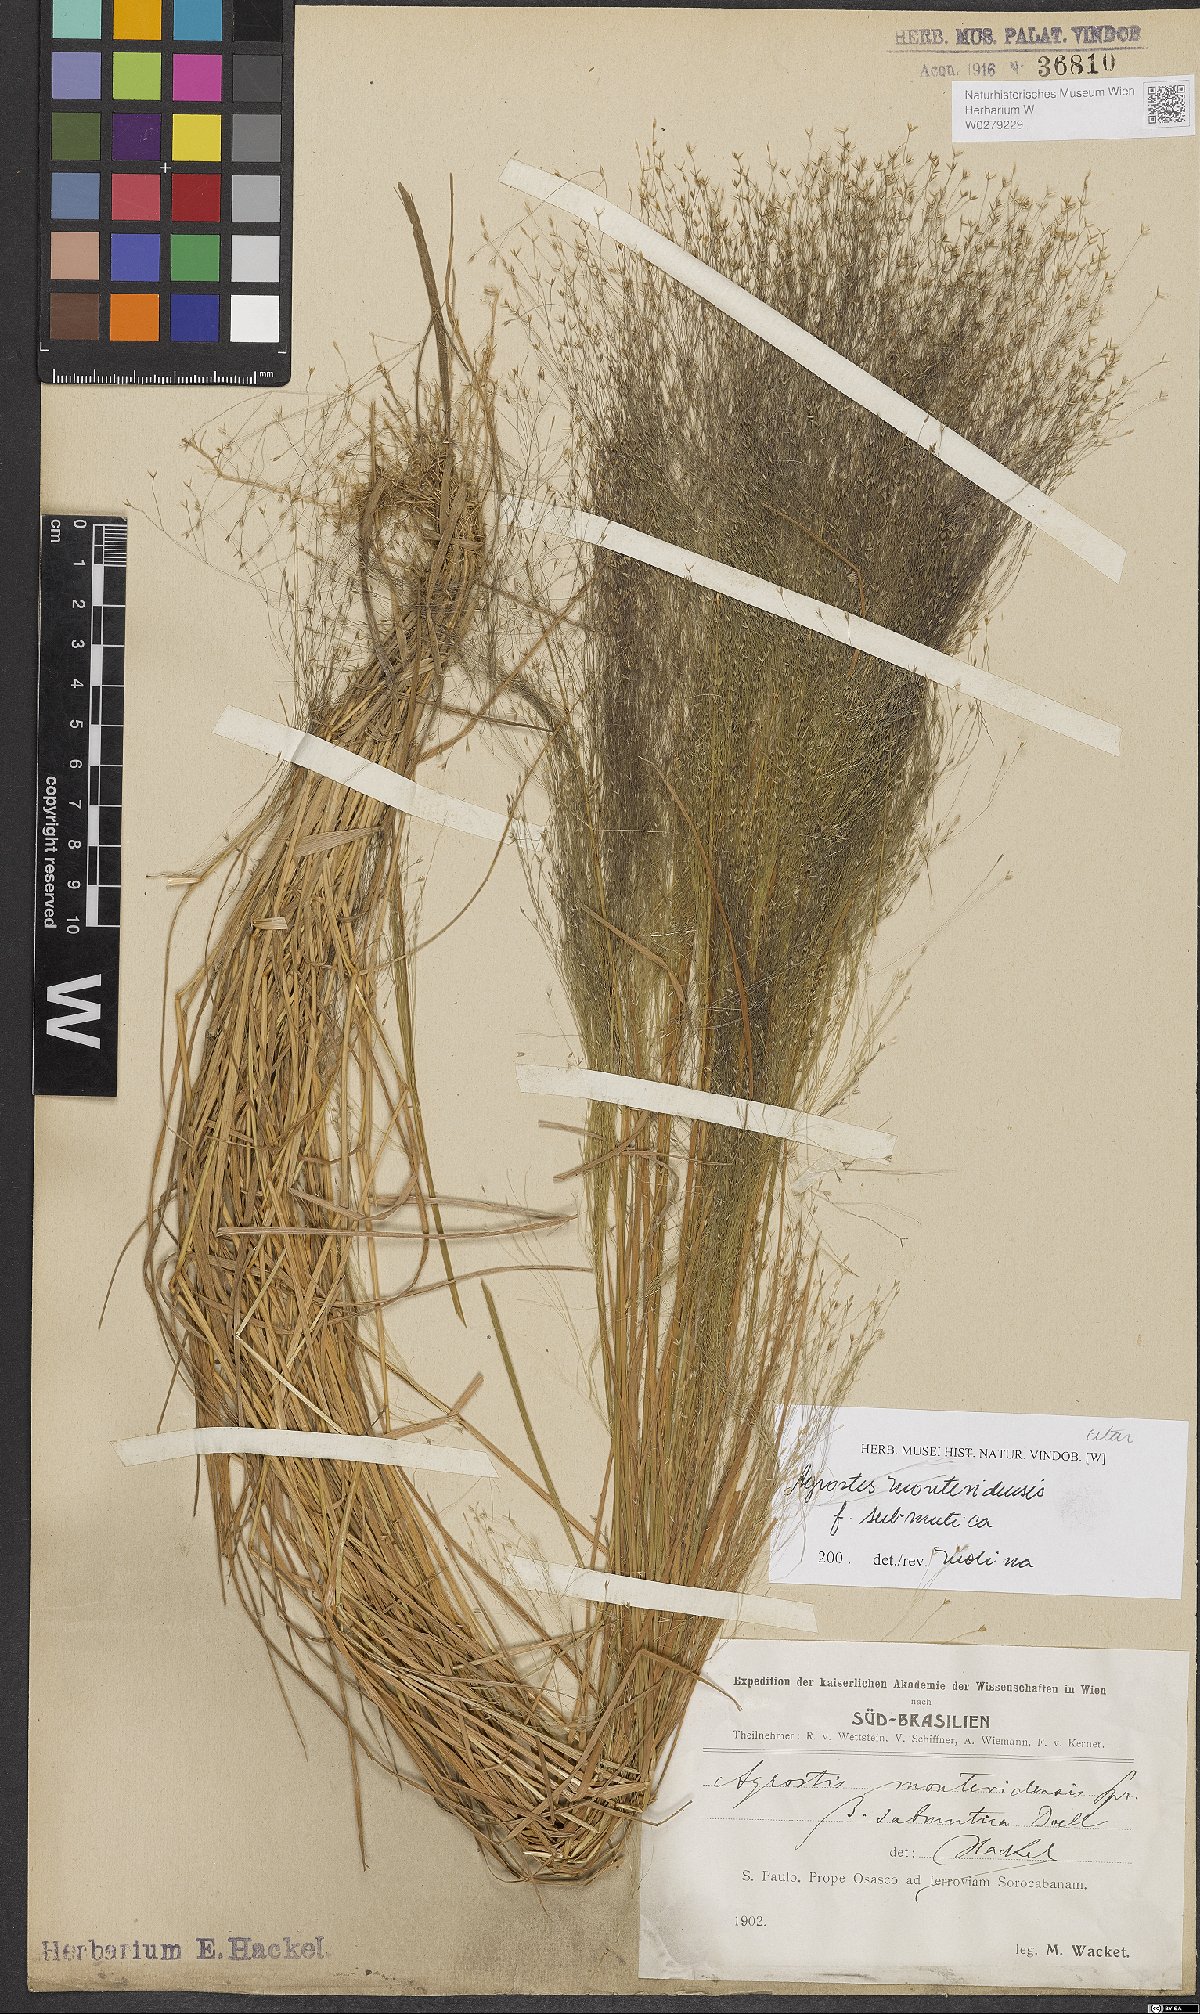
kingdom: Plantae
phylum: Tracheophyta
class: Liliopsida
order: Poales
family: Poaceae
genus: Agrostis
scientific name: Agrostis montevidensis
